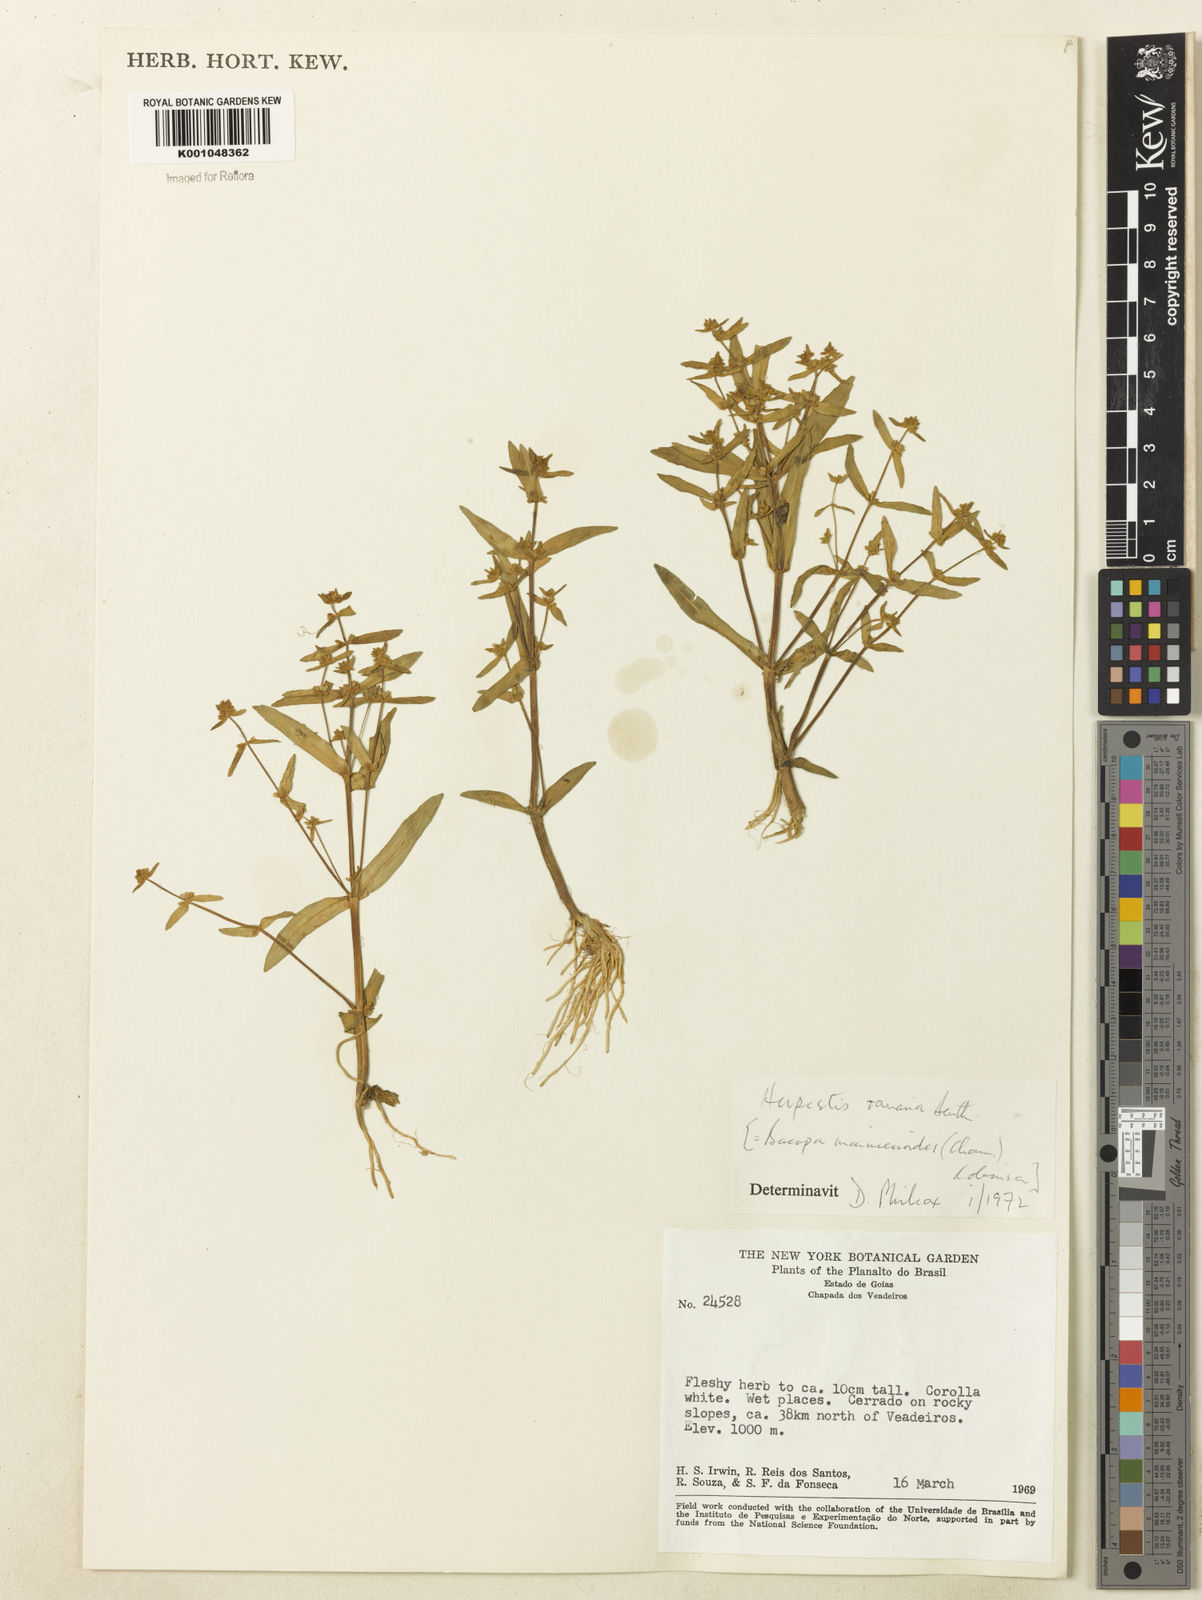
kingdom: Plantae
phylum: Tracheophyta
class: Magnoliopsida
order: Lamiales
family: Plantaginaceae
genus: Bacopa
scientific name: Bacopa monnierioides
